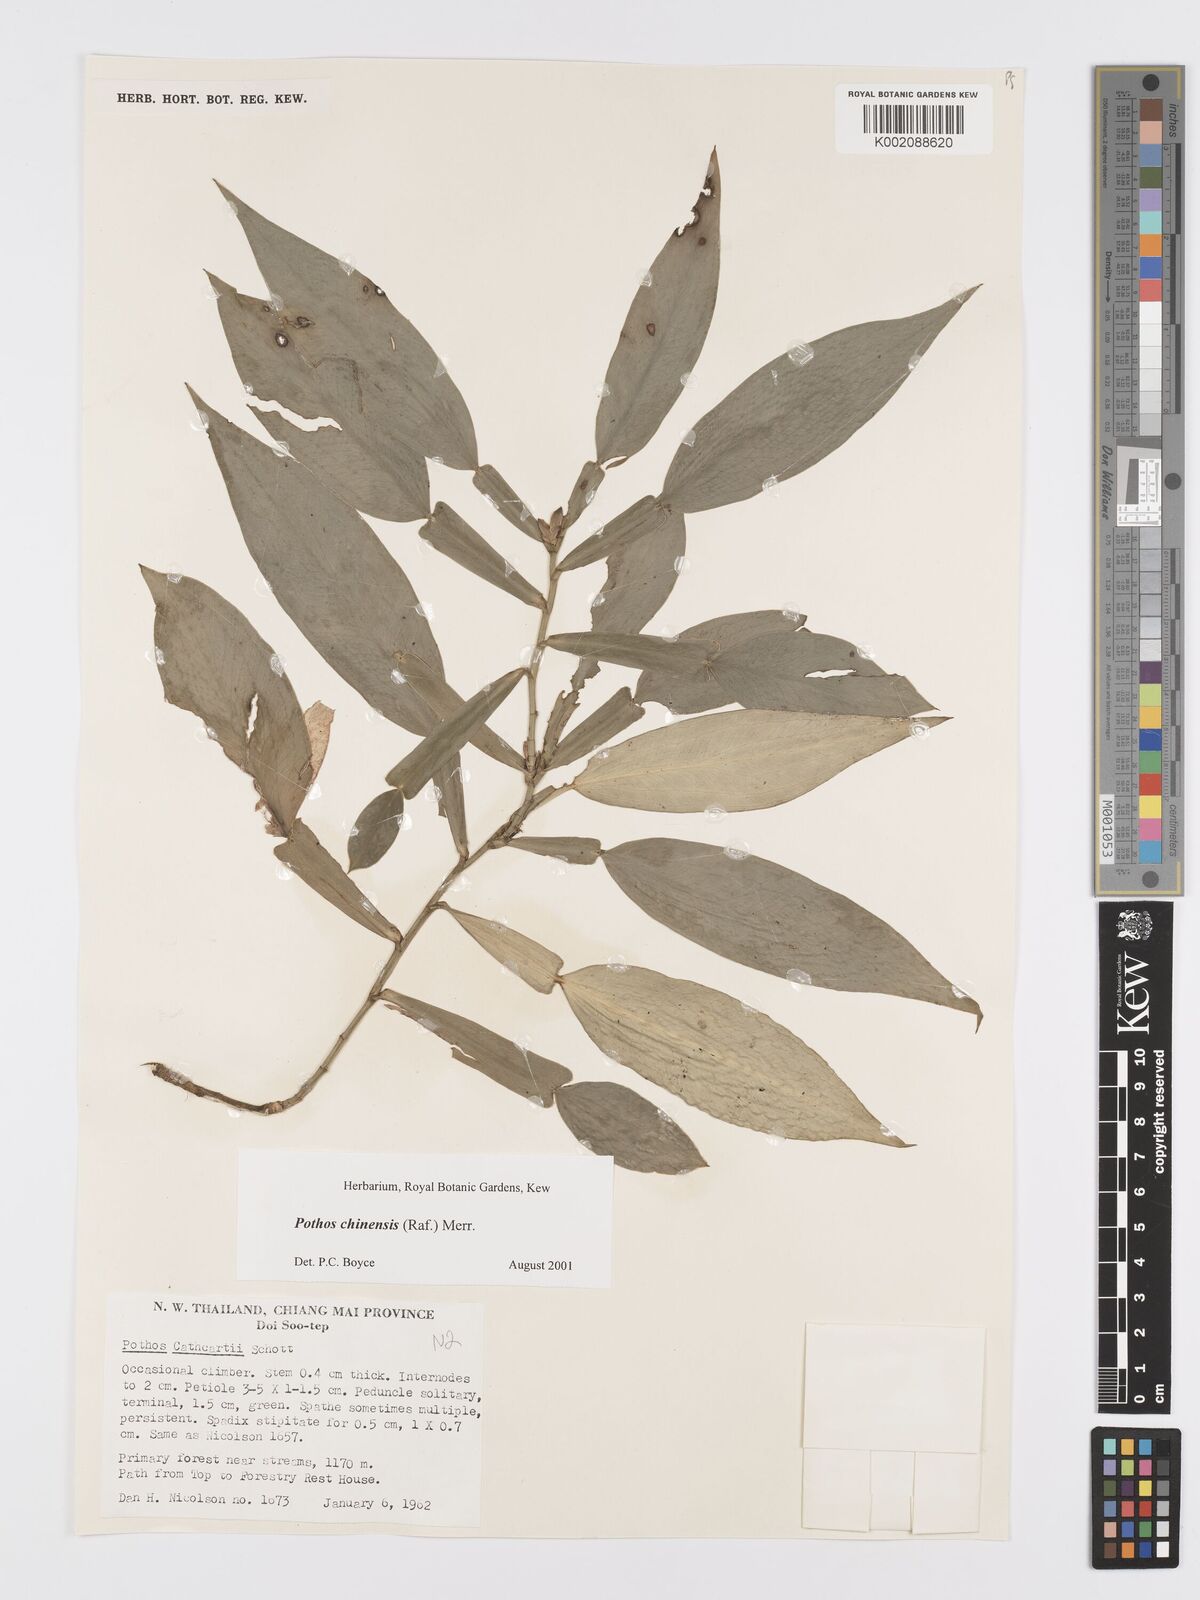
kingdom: Plantae
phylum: Tracheophyta
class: Liliopsida
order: Alismatales
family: Araceae
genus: Pothos
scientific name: Pothos chinensis
